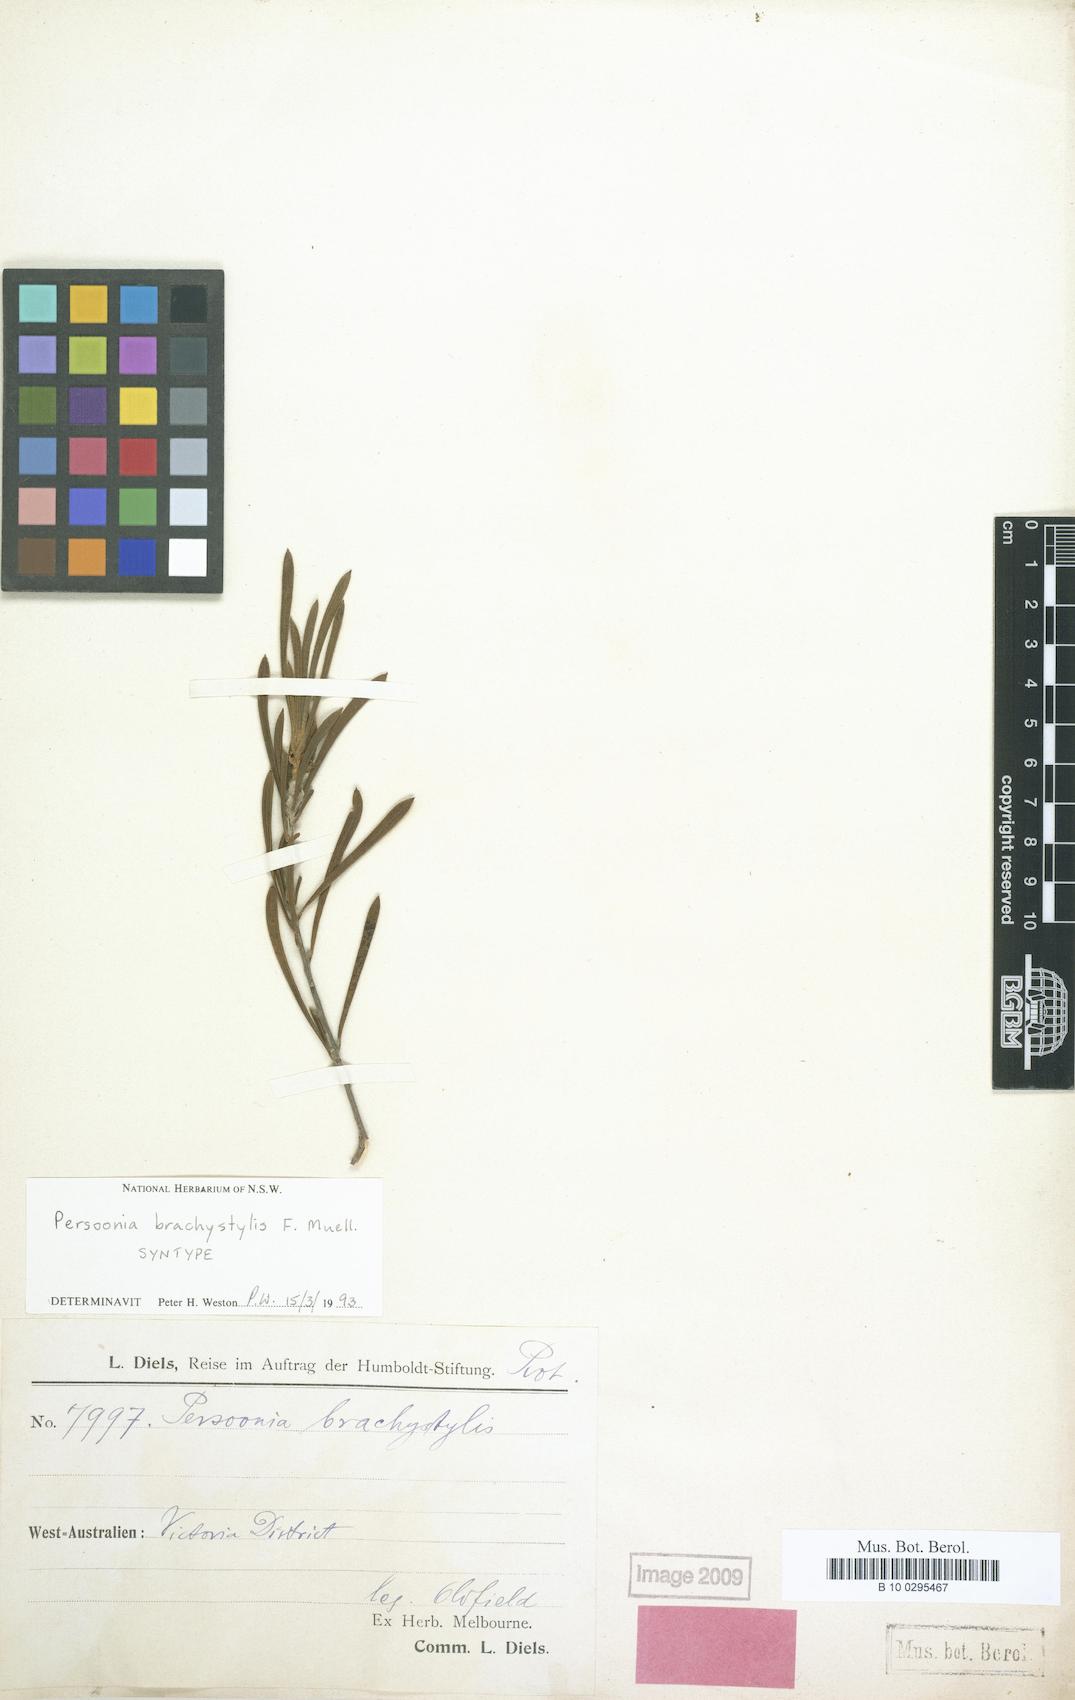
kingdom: Plantae
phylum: Tracheophyta
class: Magnoliopsida
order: Proteales
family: Proteaceae
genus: Persoonia
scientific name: Persoonia brachystylis
